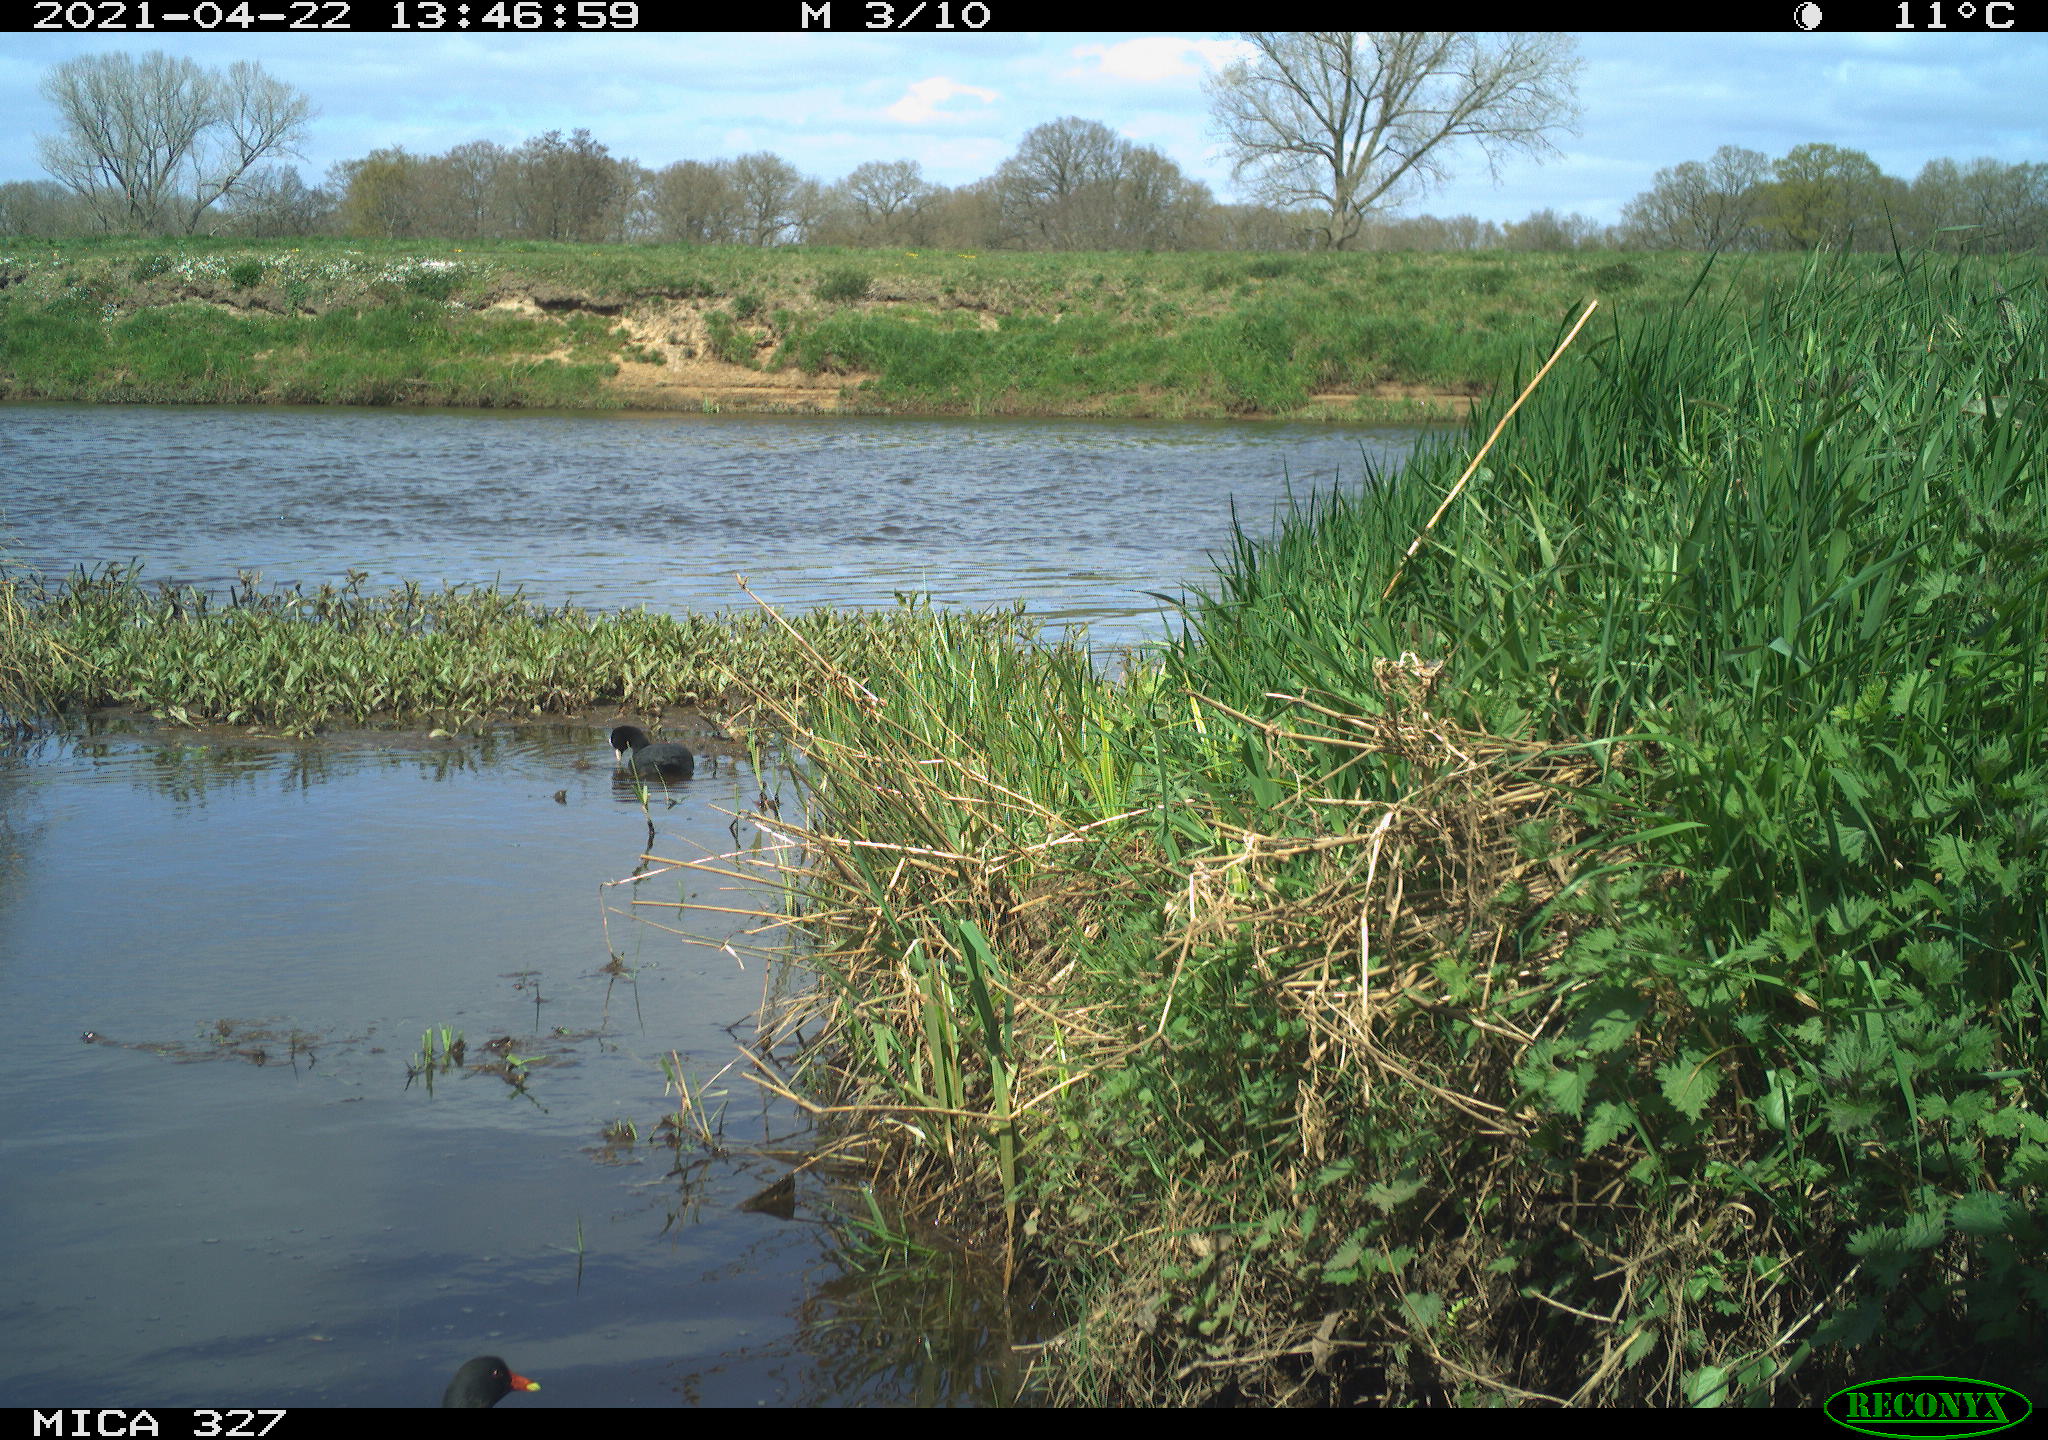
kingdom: Animalia
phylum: Chordata
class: Aves
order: Gruiformes
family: Rallidae
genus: Gallinula
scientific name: Gallinula chloropus
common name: Common moorhen
